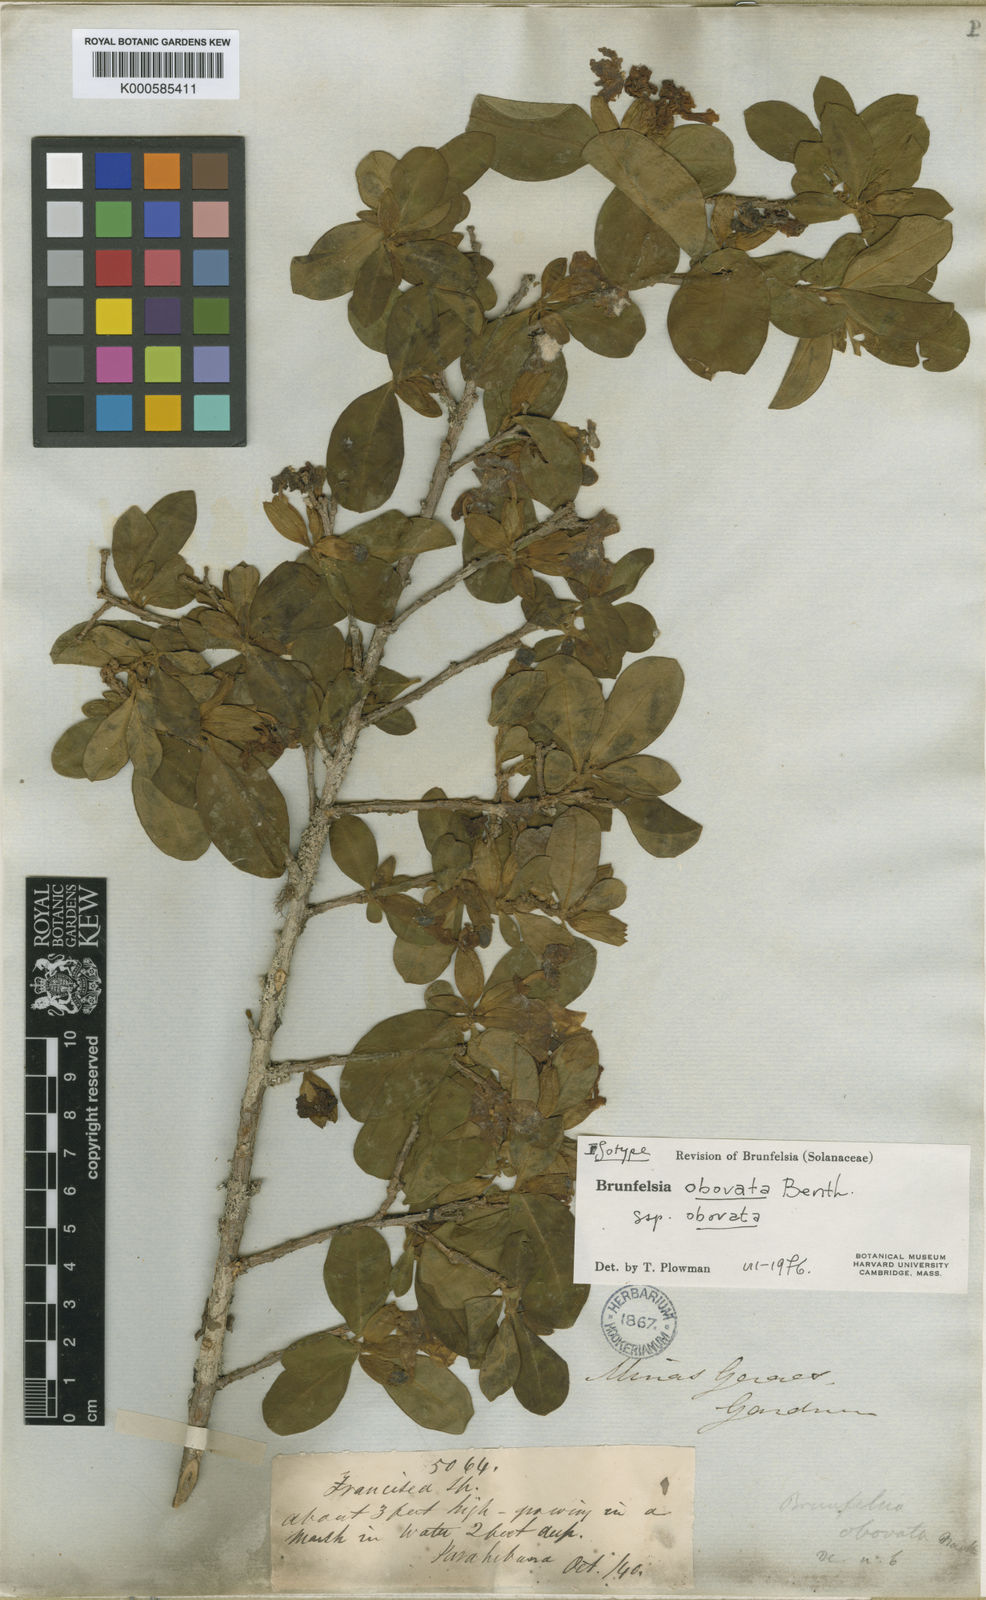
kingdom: Plantae
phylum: Tracheophyta
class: Magnoliopsida
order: Solanales
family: Solanaceae
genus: Brunfelsia
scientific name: Brunfelsia obovata
